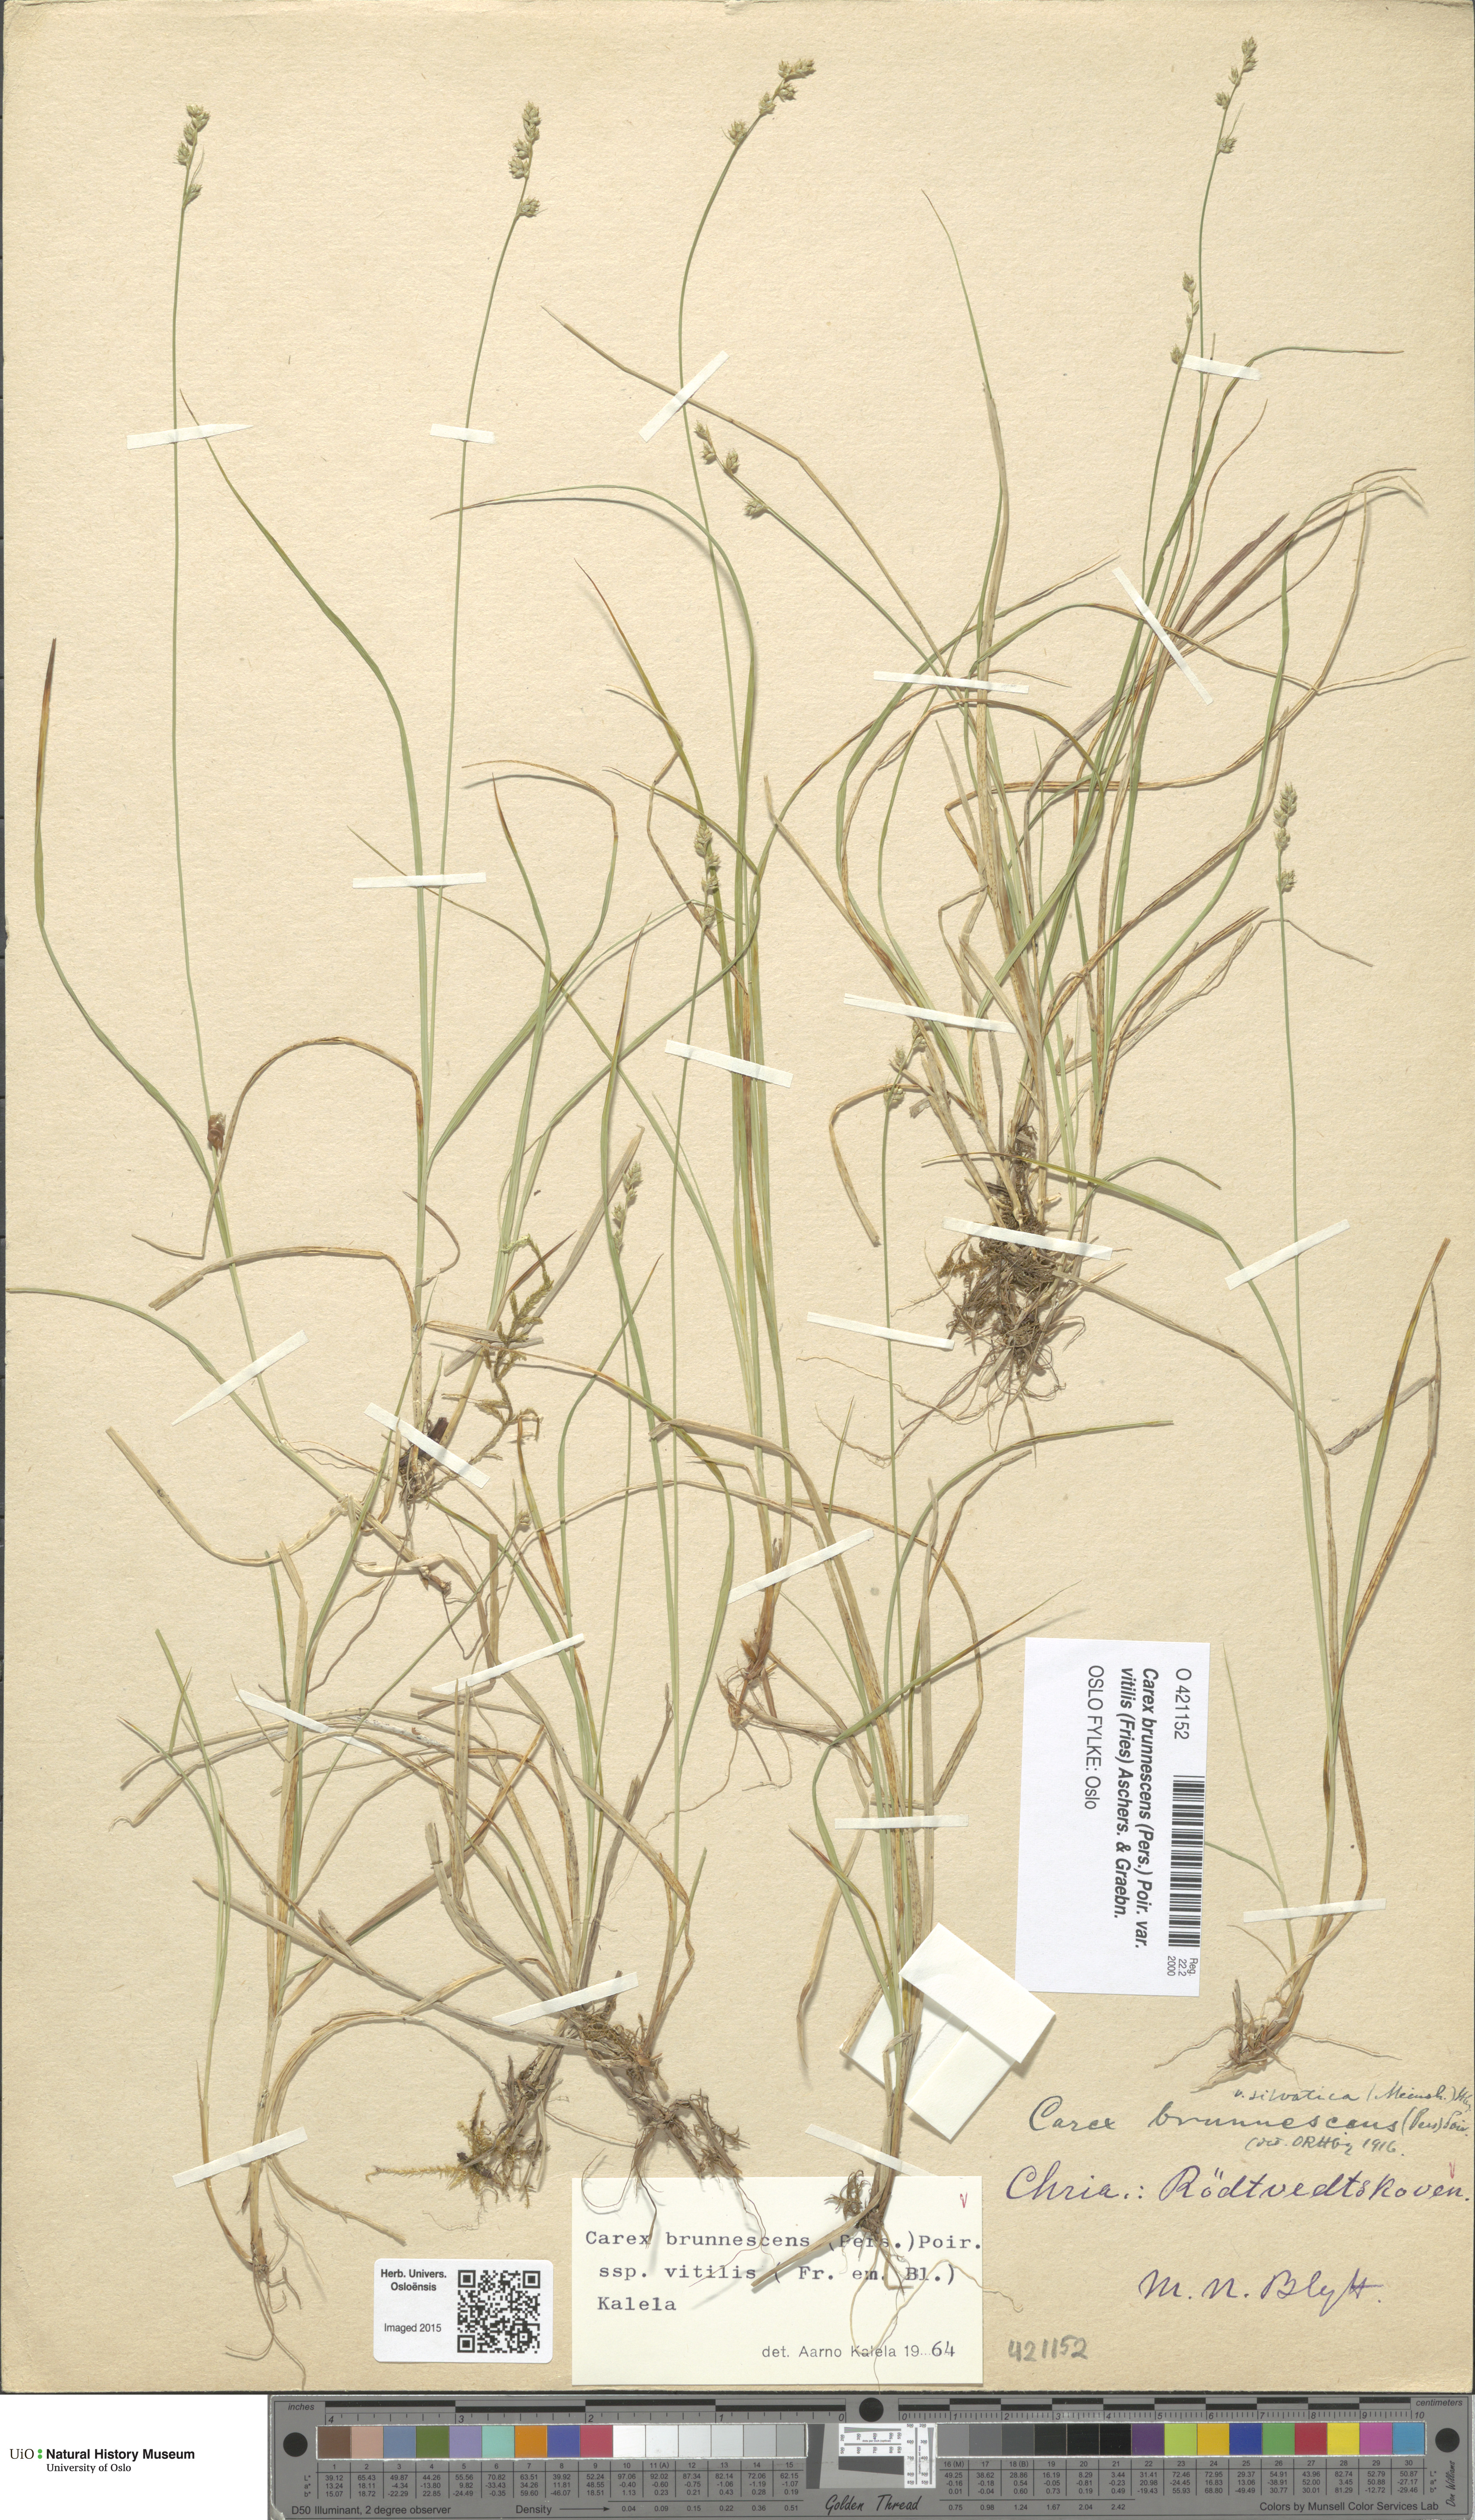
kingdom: Plantae
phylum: Tracheophyta
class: Liliopsida
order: Poales
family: Cyperaceae
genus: Carex
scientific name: Carex brunnescens
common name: Brown sedge
